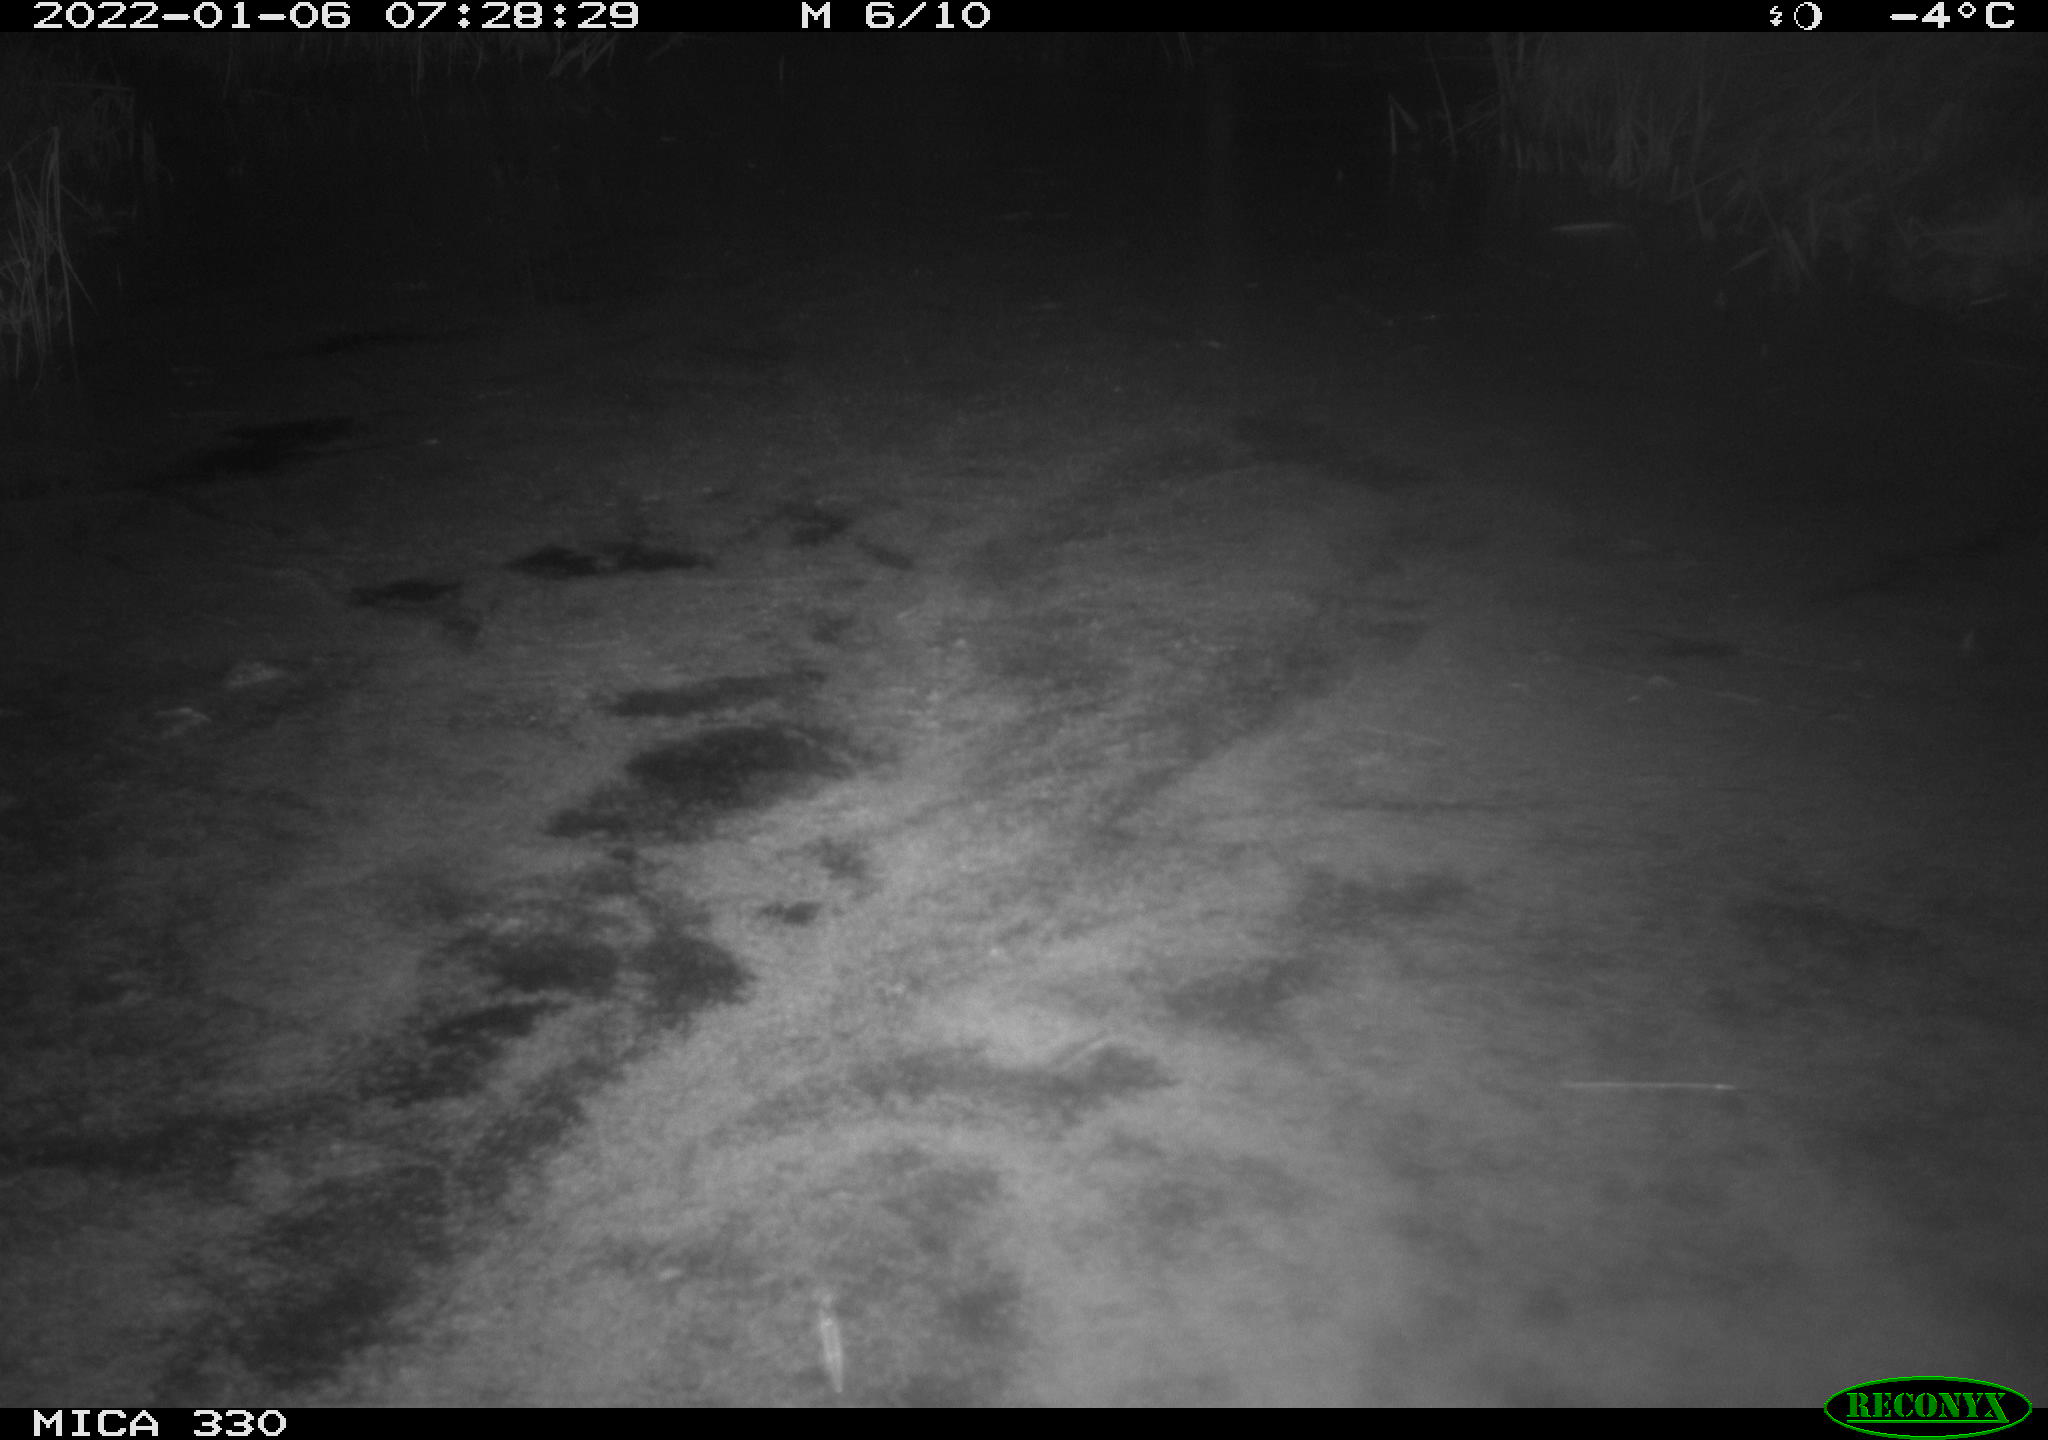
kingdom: Animalia
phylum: Chordata
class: Aves
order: Anseriformes
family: Anatidae
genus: Anas
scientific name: Anas platyrhynchos
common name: Mallard
